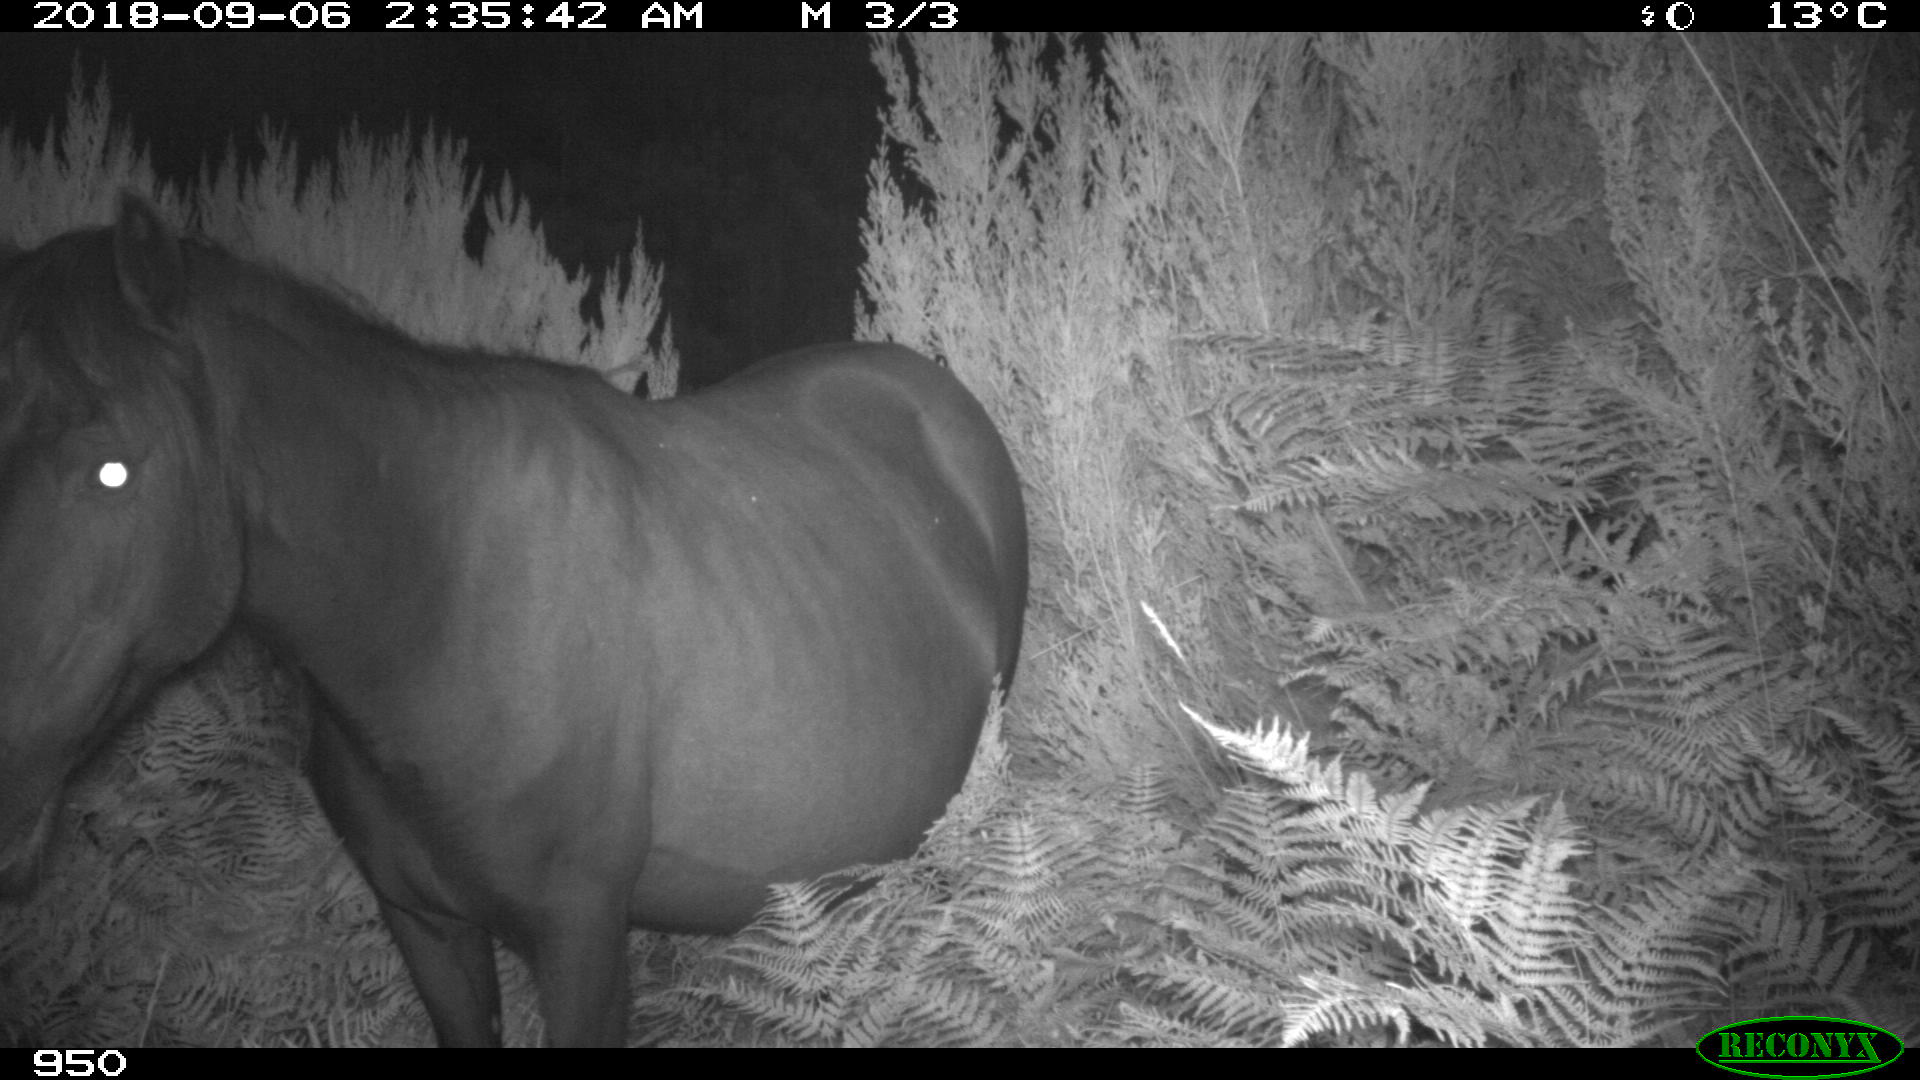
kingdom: Animalia
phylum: Chordata
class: Mammalia
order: Perissodactyla
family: Equidae
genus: Equus
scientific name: Equus caballus
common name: Horse
